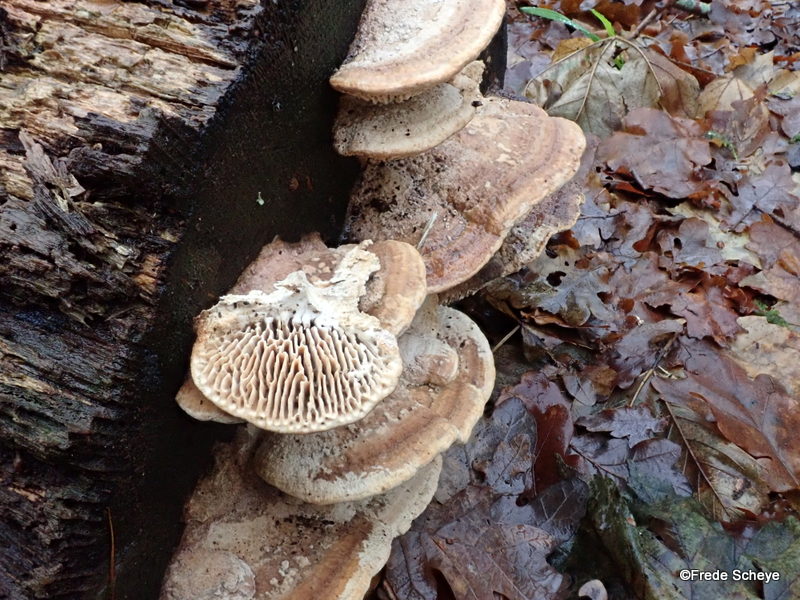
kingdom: Fungi
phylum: Basidiomycota
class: Agaricomycetes
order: Polyporales
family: Fomitopsidaceae
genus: Daedalea
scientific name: Daedalea quercina
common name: ege-labyrintsvamp
